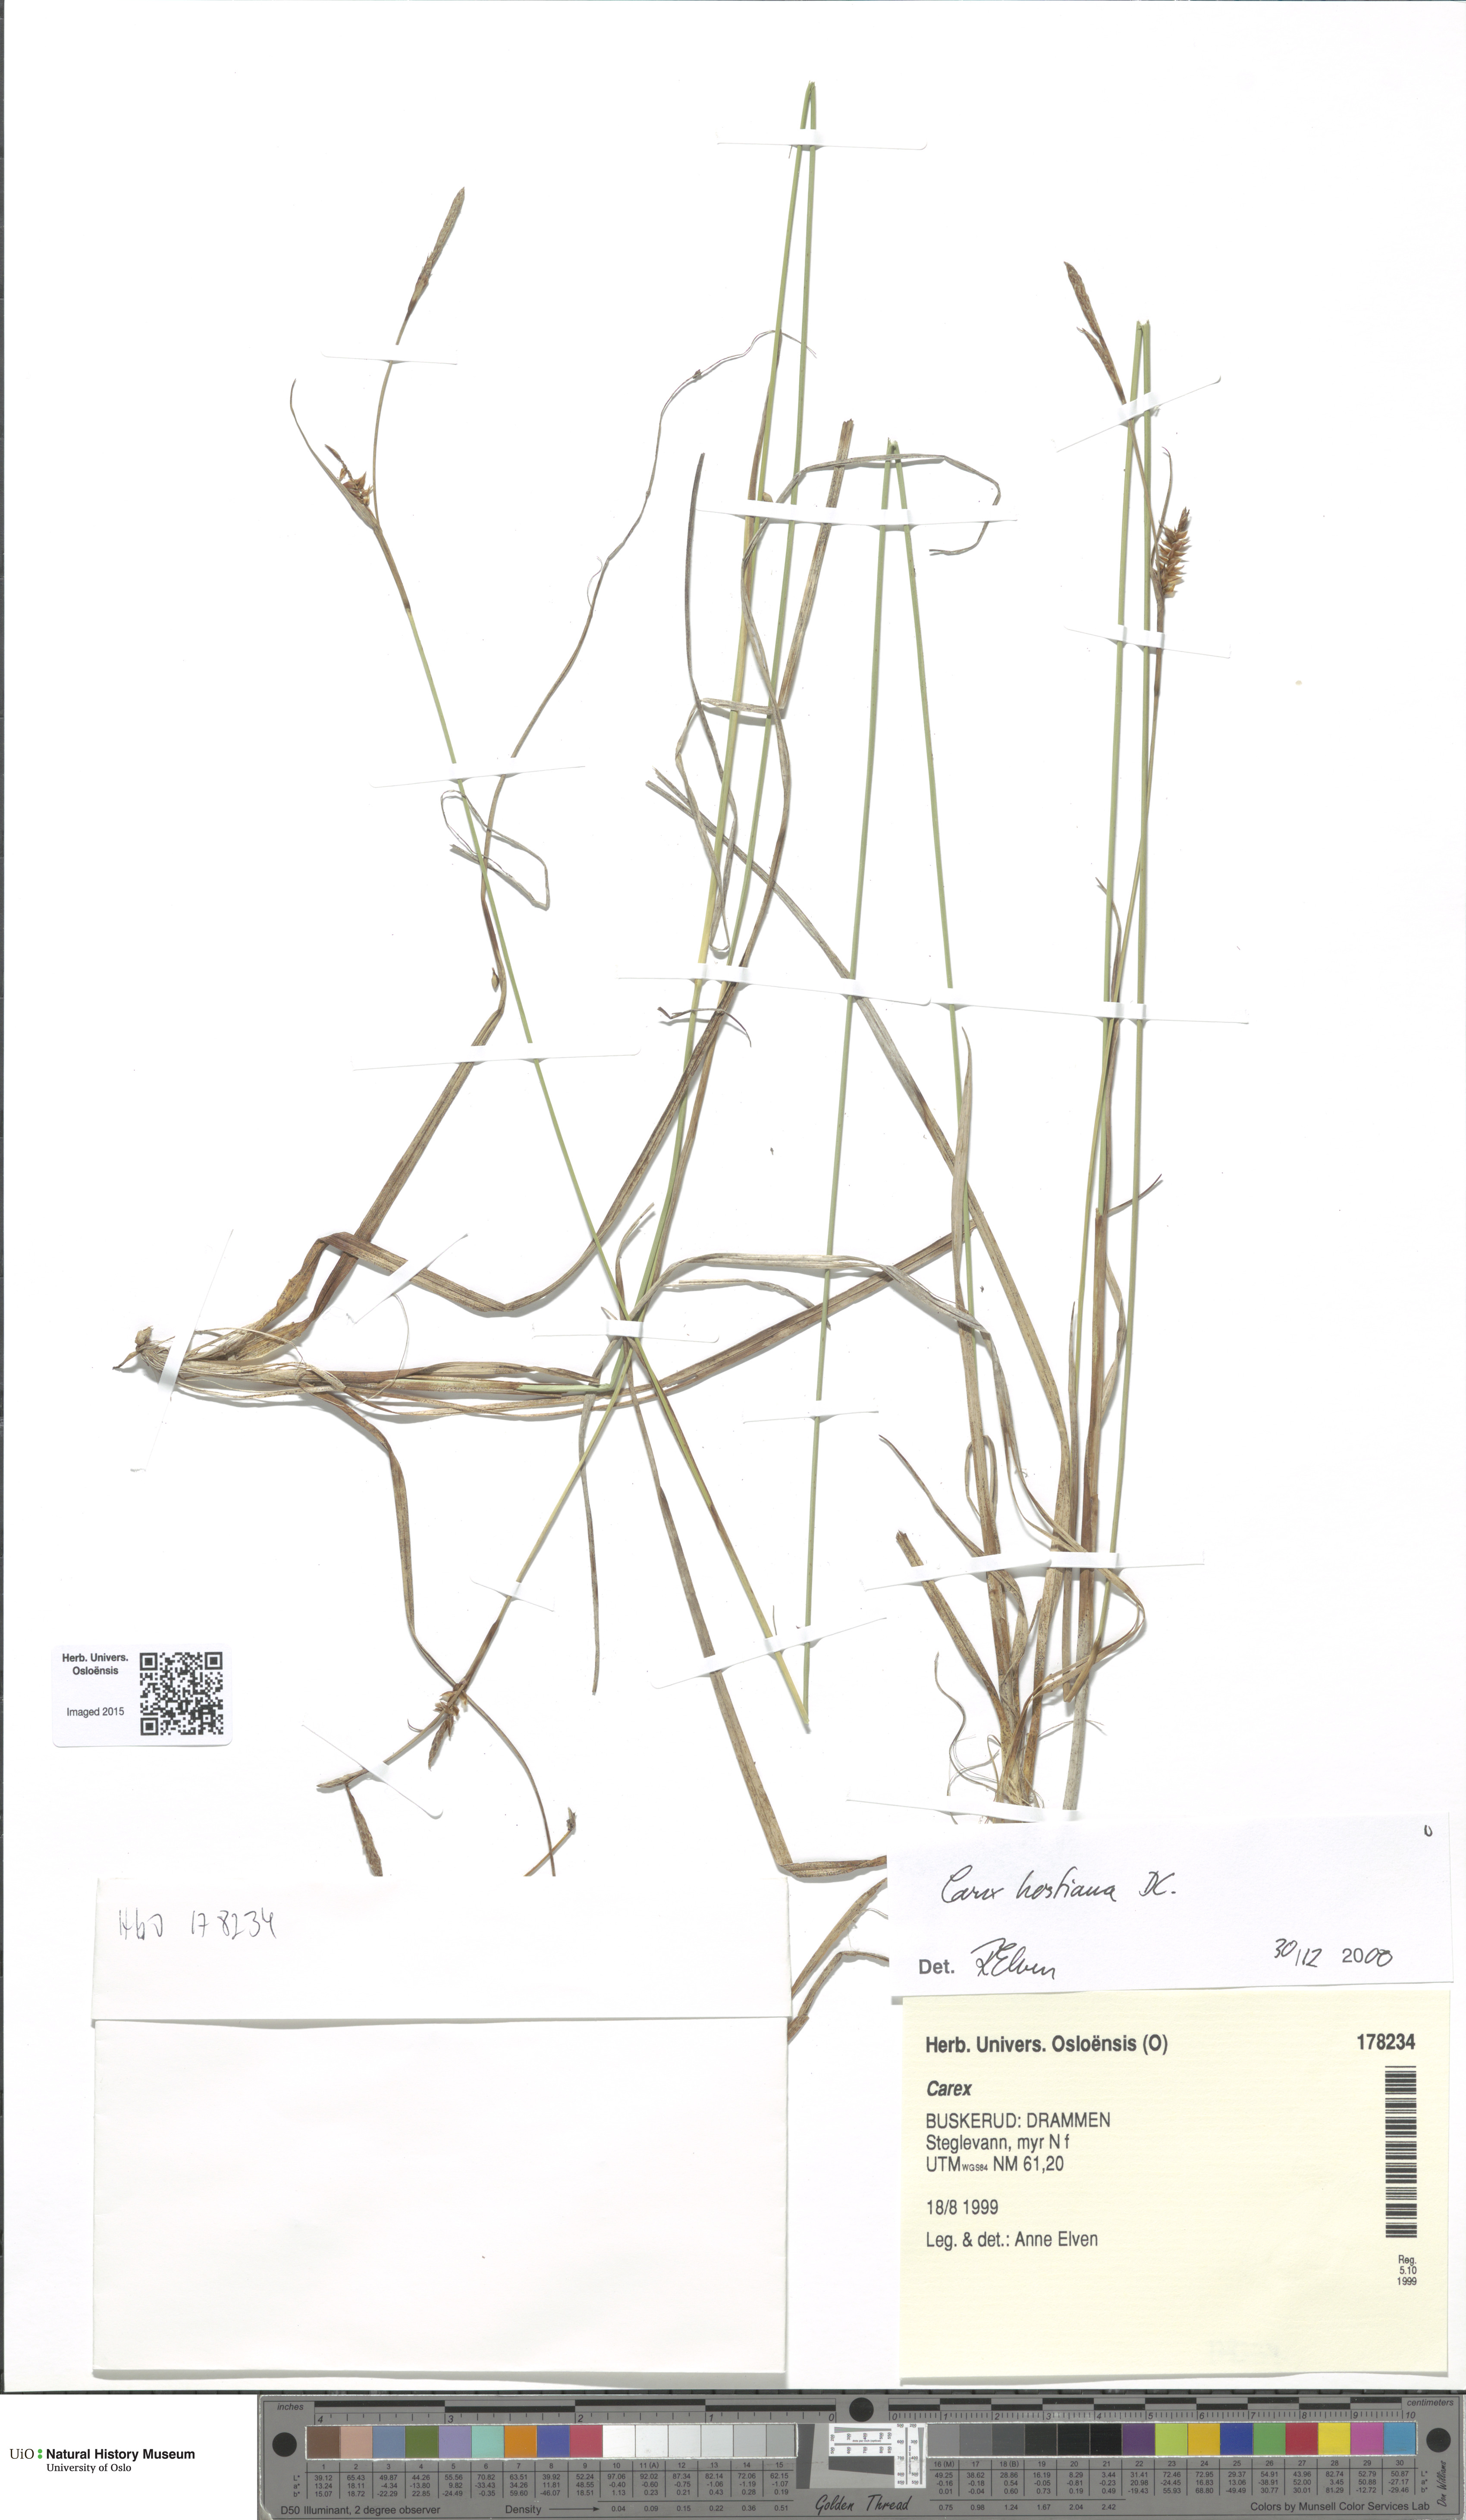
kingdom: Plantae
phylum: Tracheophyta
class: Liliopsida
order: Poales
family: Cyperaceae
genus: Carex
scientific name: Carex hostiana
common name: Tawny sedge
